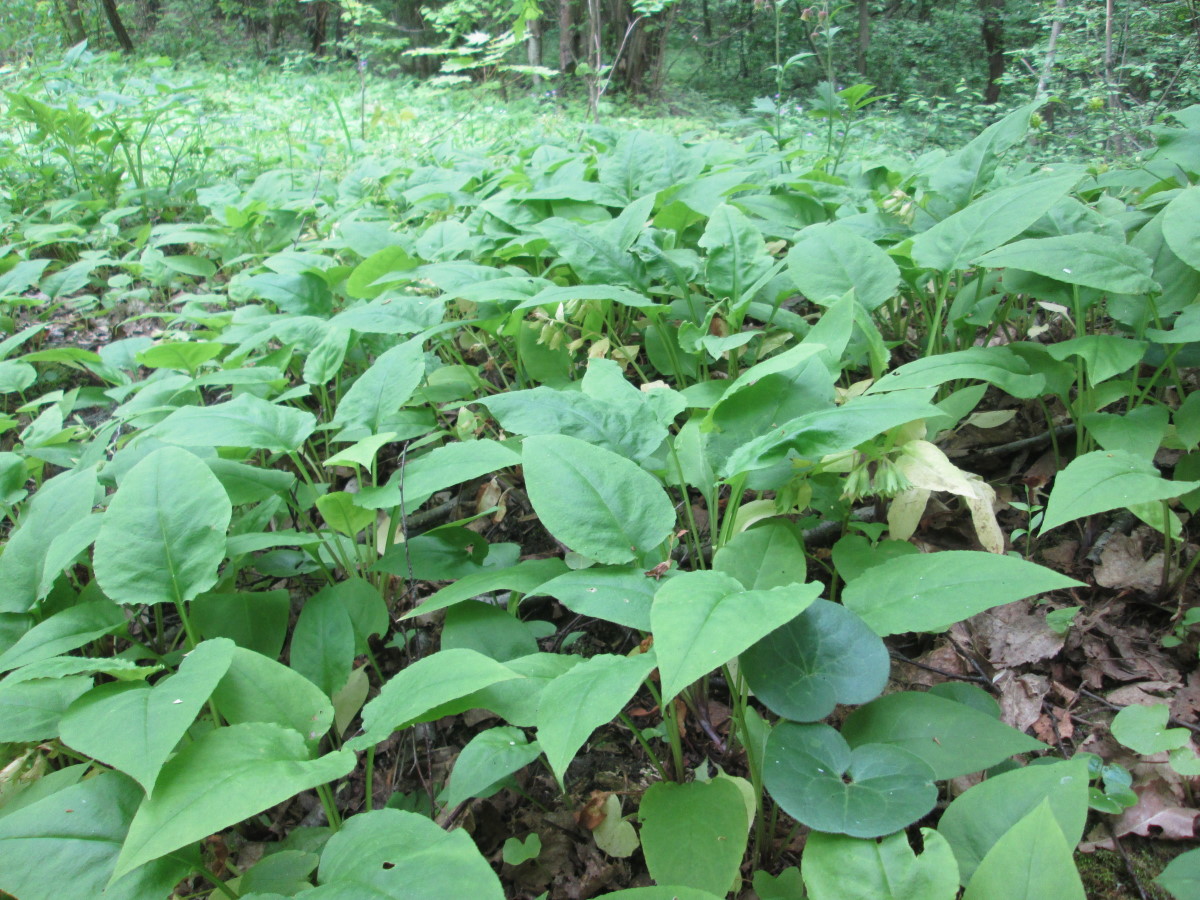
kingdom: Plantae
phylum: Tracheophyta
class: Magnoliopsida
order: Boraginales
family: Boraginaceae
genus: Pulmonaria
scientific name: Pulmonaria obscura
